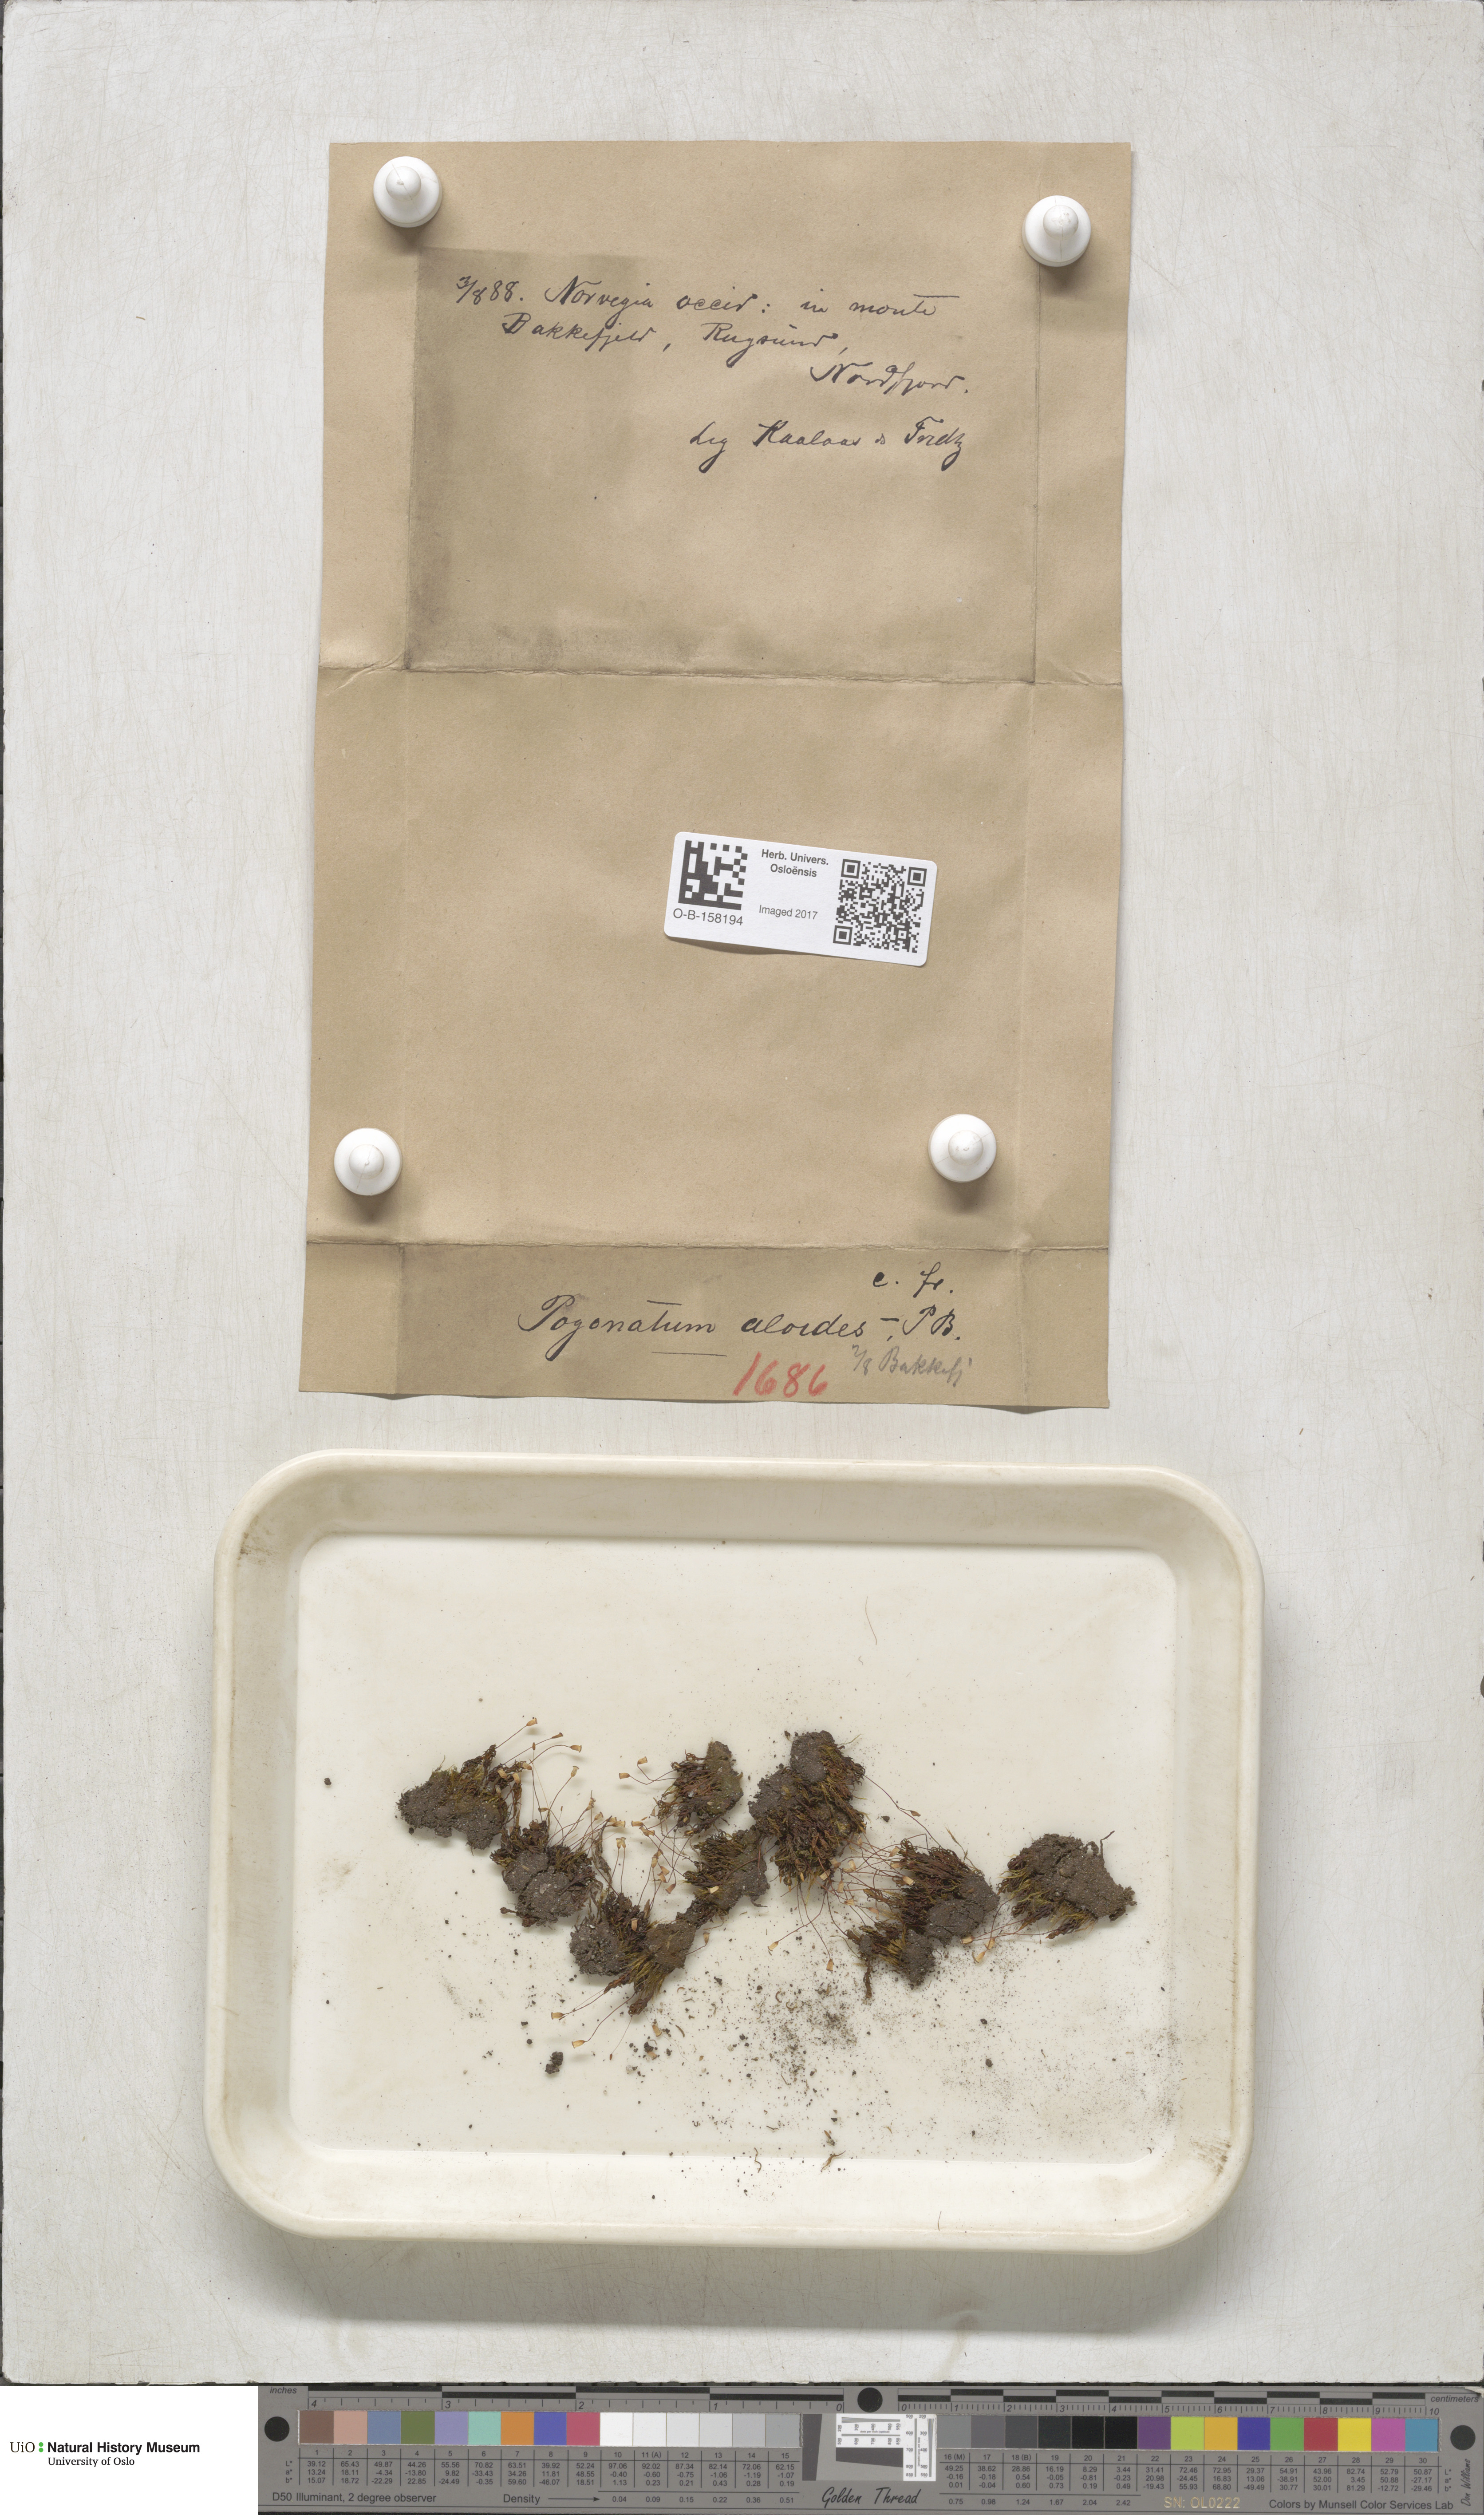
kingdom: Plantae
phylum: Bryophyta
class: Polytrichopsida
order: Polytrichales
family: Polytrichaceae
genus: Pogonatum
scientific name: Pogonatum aloides
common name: Aloe haircap
